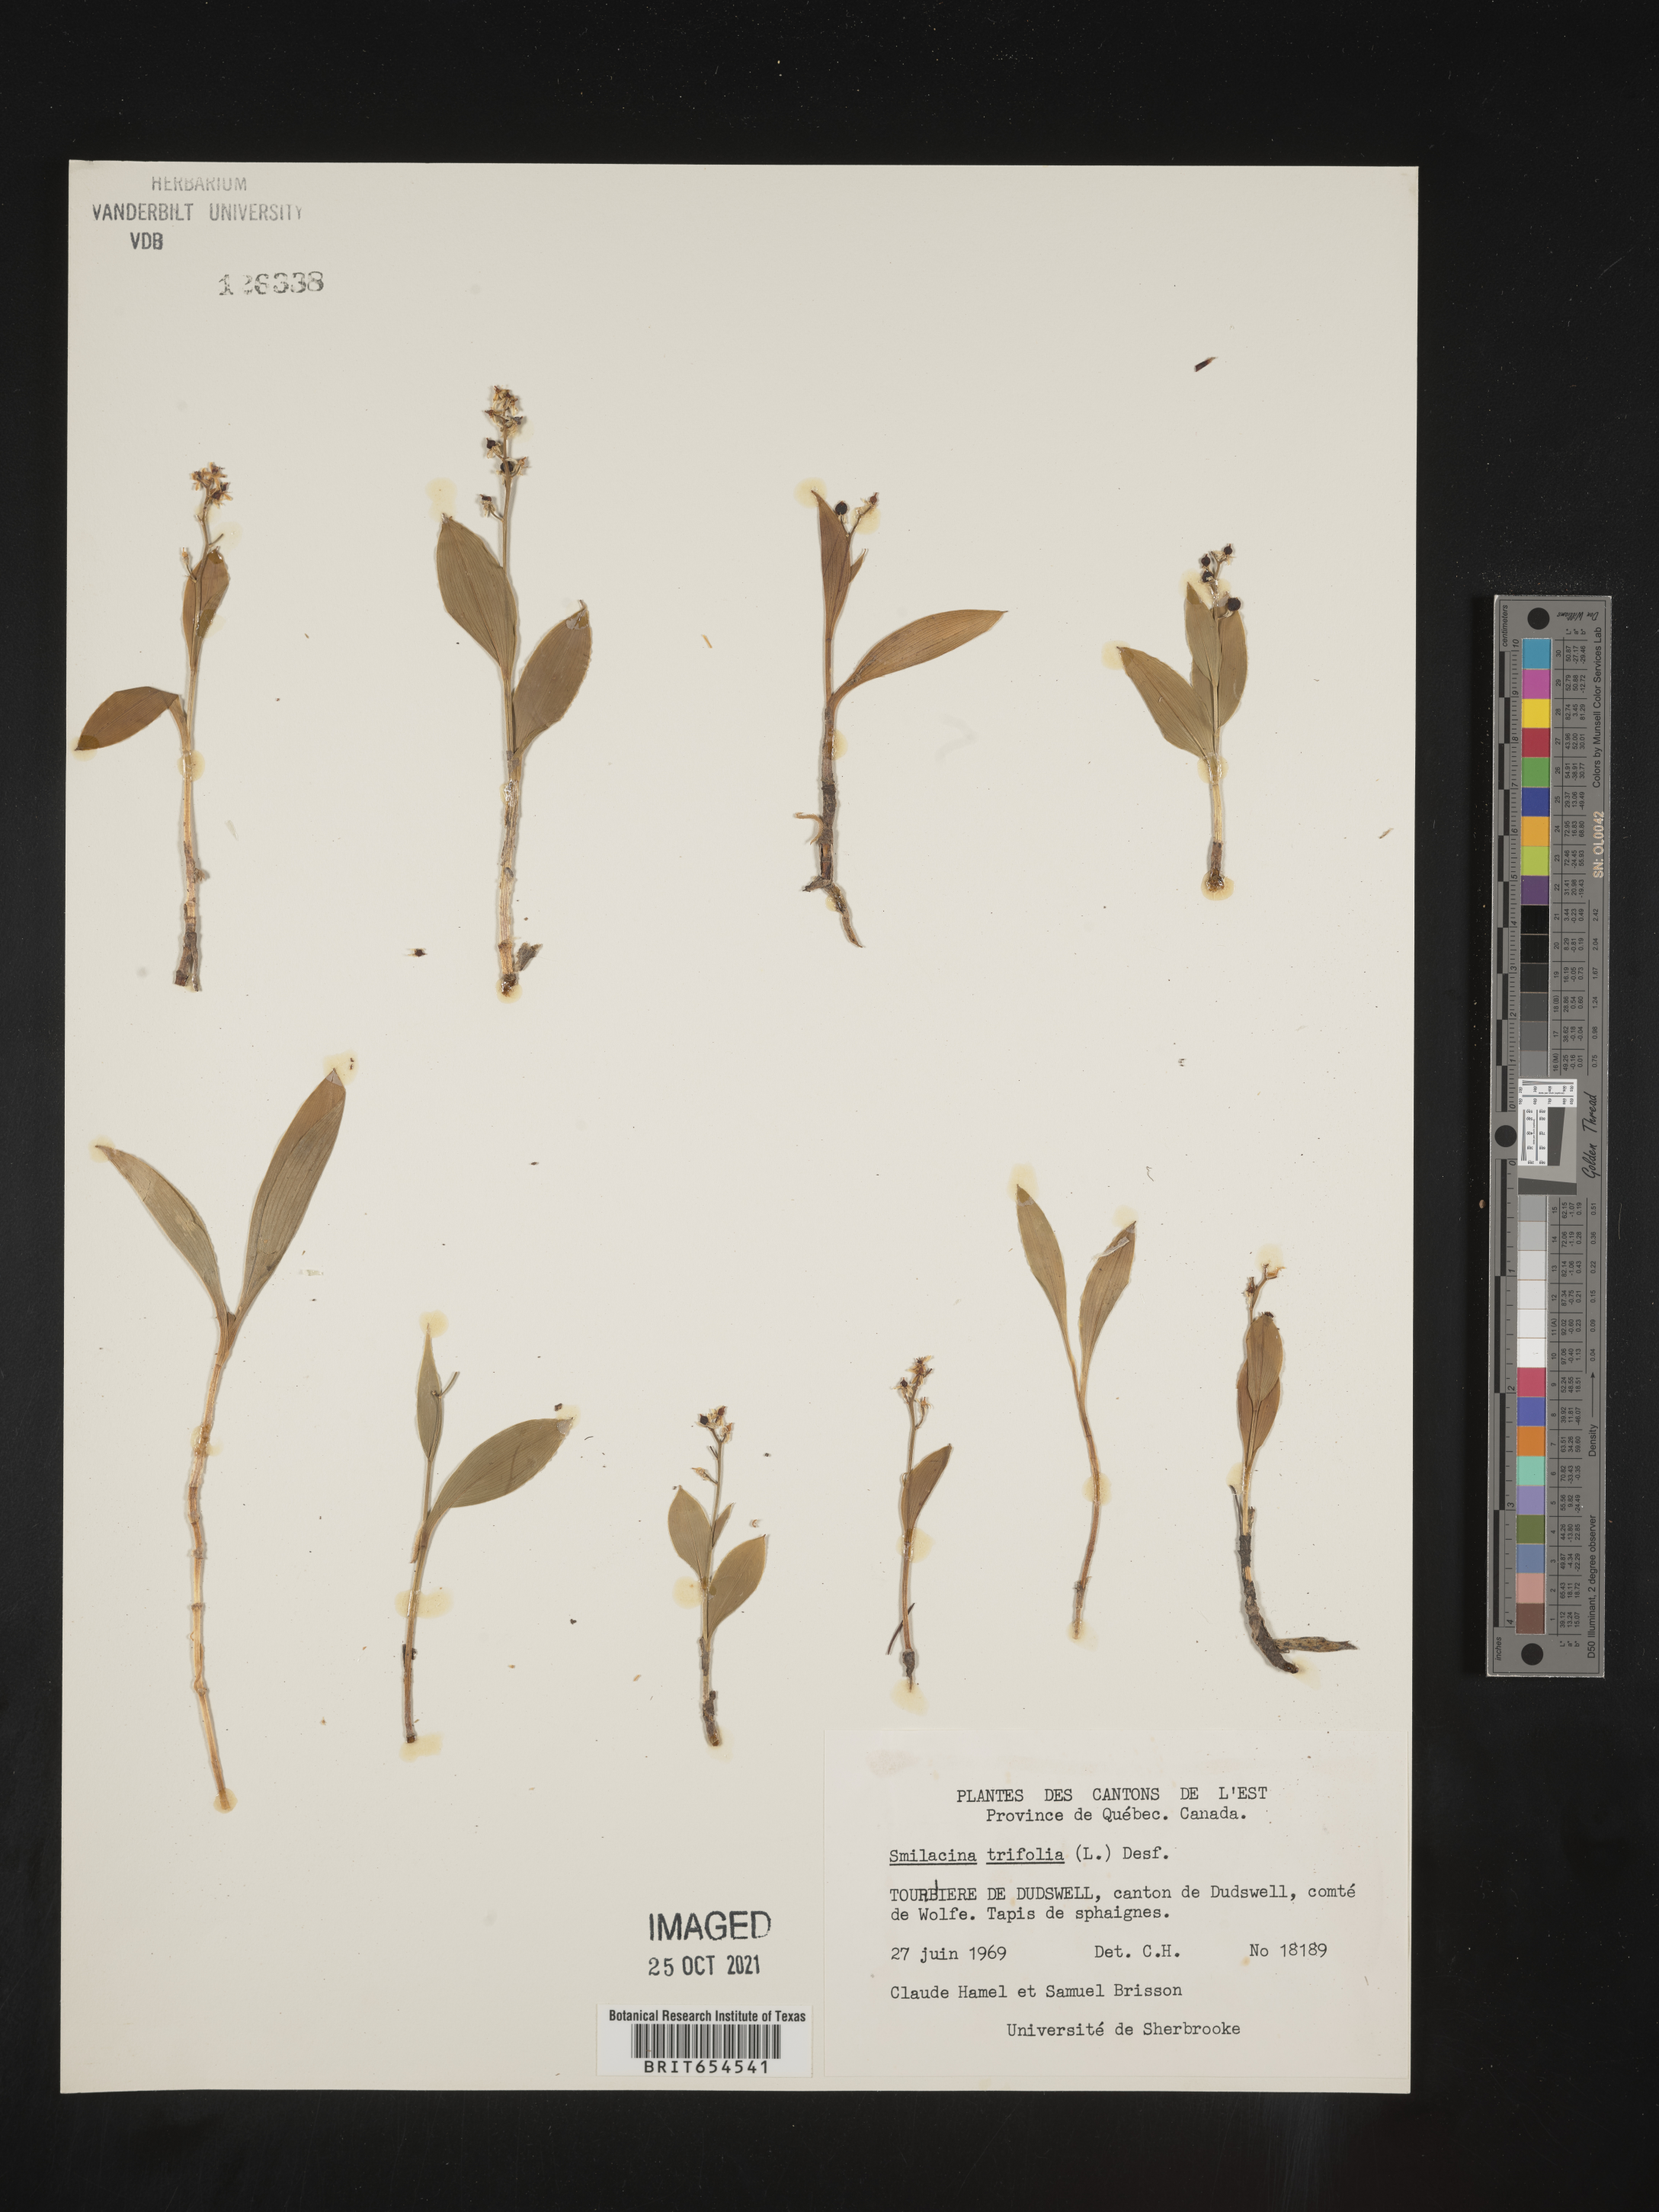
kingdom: Plantae
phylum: Tracheophyta
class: Liliopsida
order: Asparagales
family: Asparagaceae
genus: Maianthemum
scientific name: Maianthemum trifolium
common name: Swamp false solomon's seal
